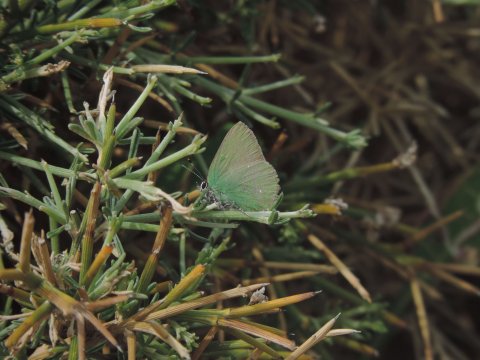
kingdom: Animalia
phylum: Arthropoda
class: Insecta
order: Lepidoptera
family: Lycaenidae
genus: Callophrys
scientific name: Callophrys rubi
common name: Green Hairstreak
